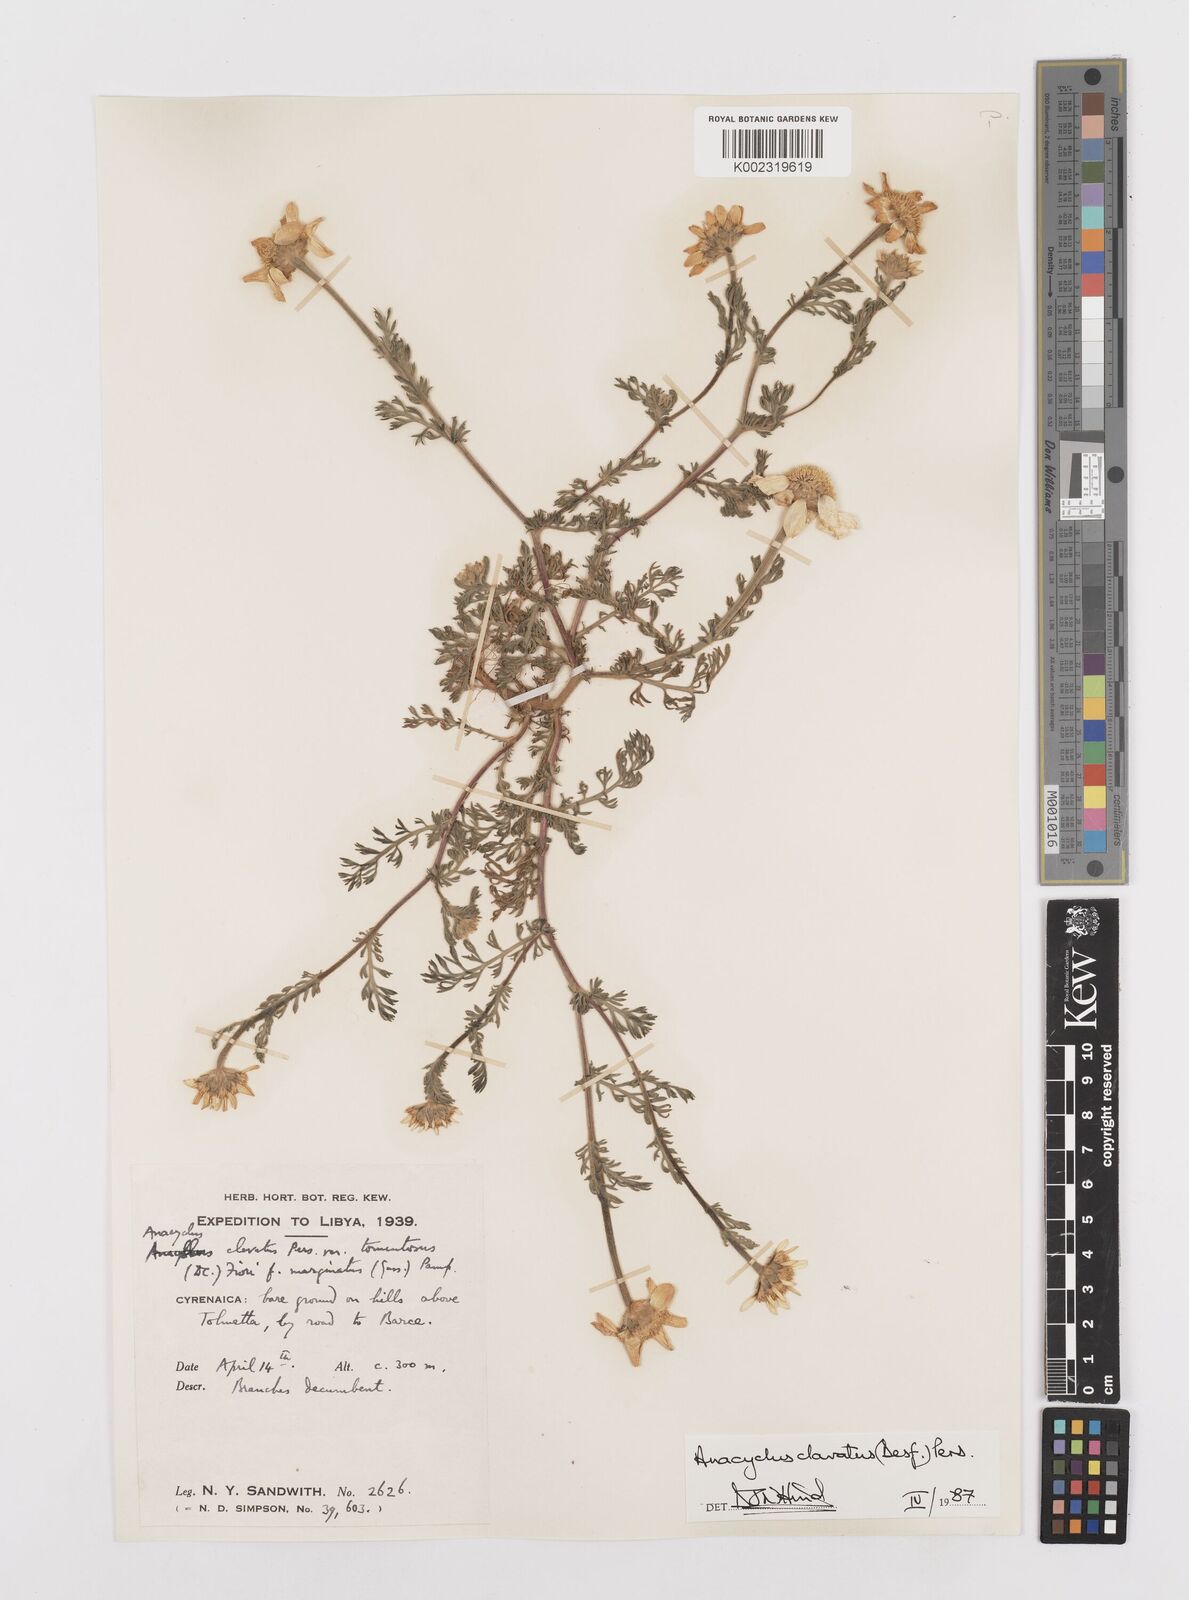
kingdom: Plantae
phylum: Tracheophyta
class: Magnoliopsida
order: Asterales
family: Asteraceae
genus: Anacyclus
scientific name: Anacyclus clavatus
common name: Whitebuttons
